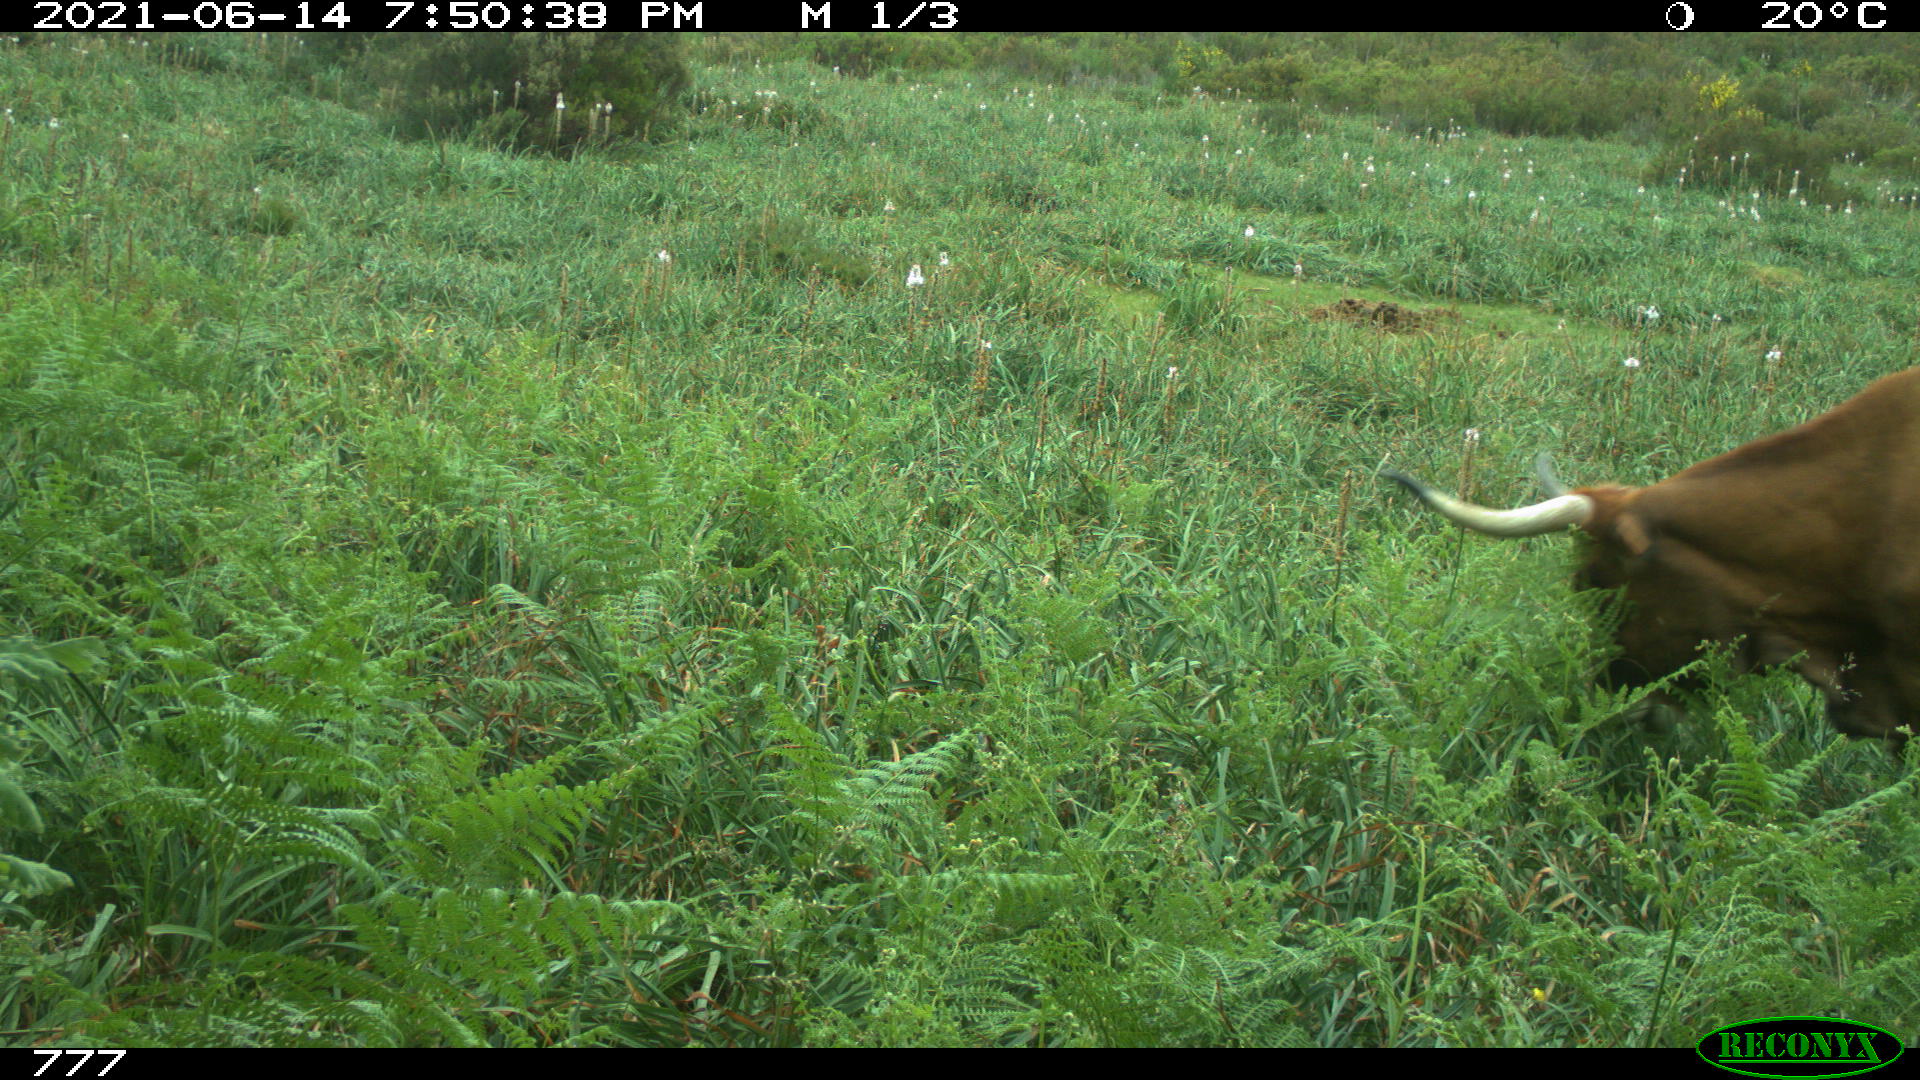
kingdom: Animalia
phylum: Chordata
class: Mammalia
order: Artiodactyla
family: Bovidae
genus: Bos
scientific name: Bos taurus
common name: Domesticated cattle
